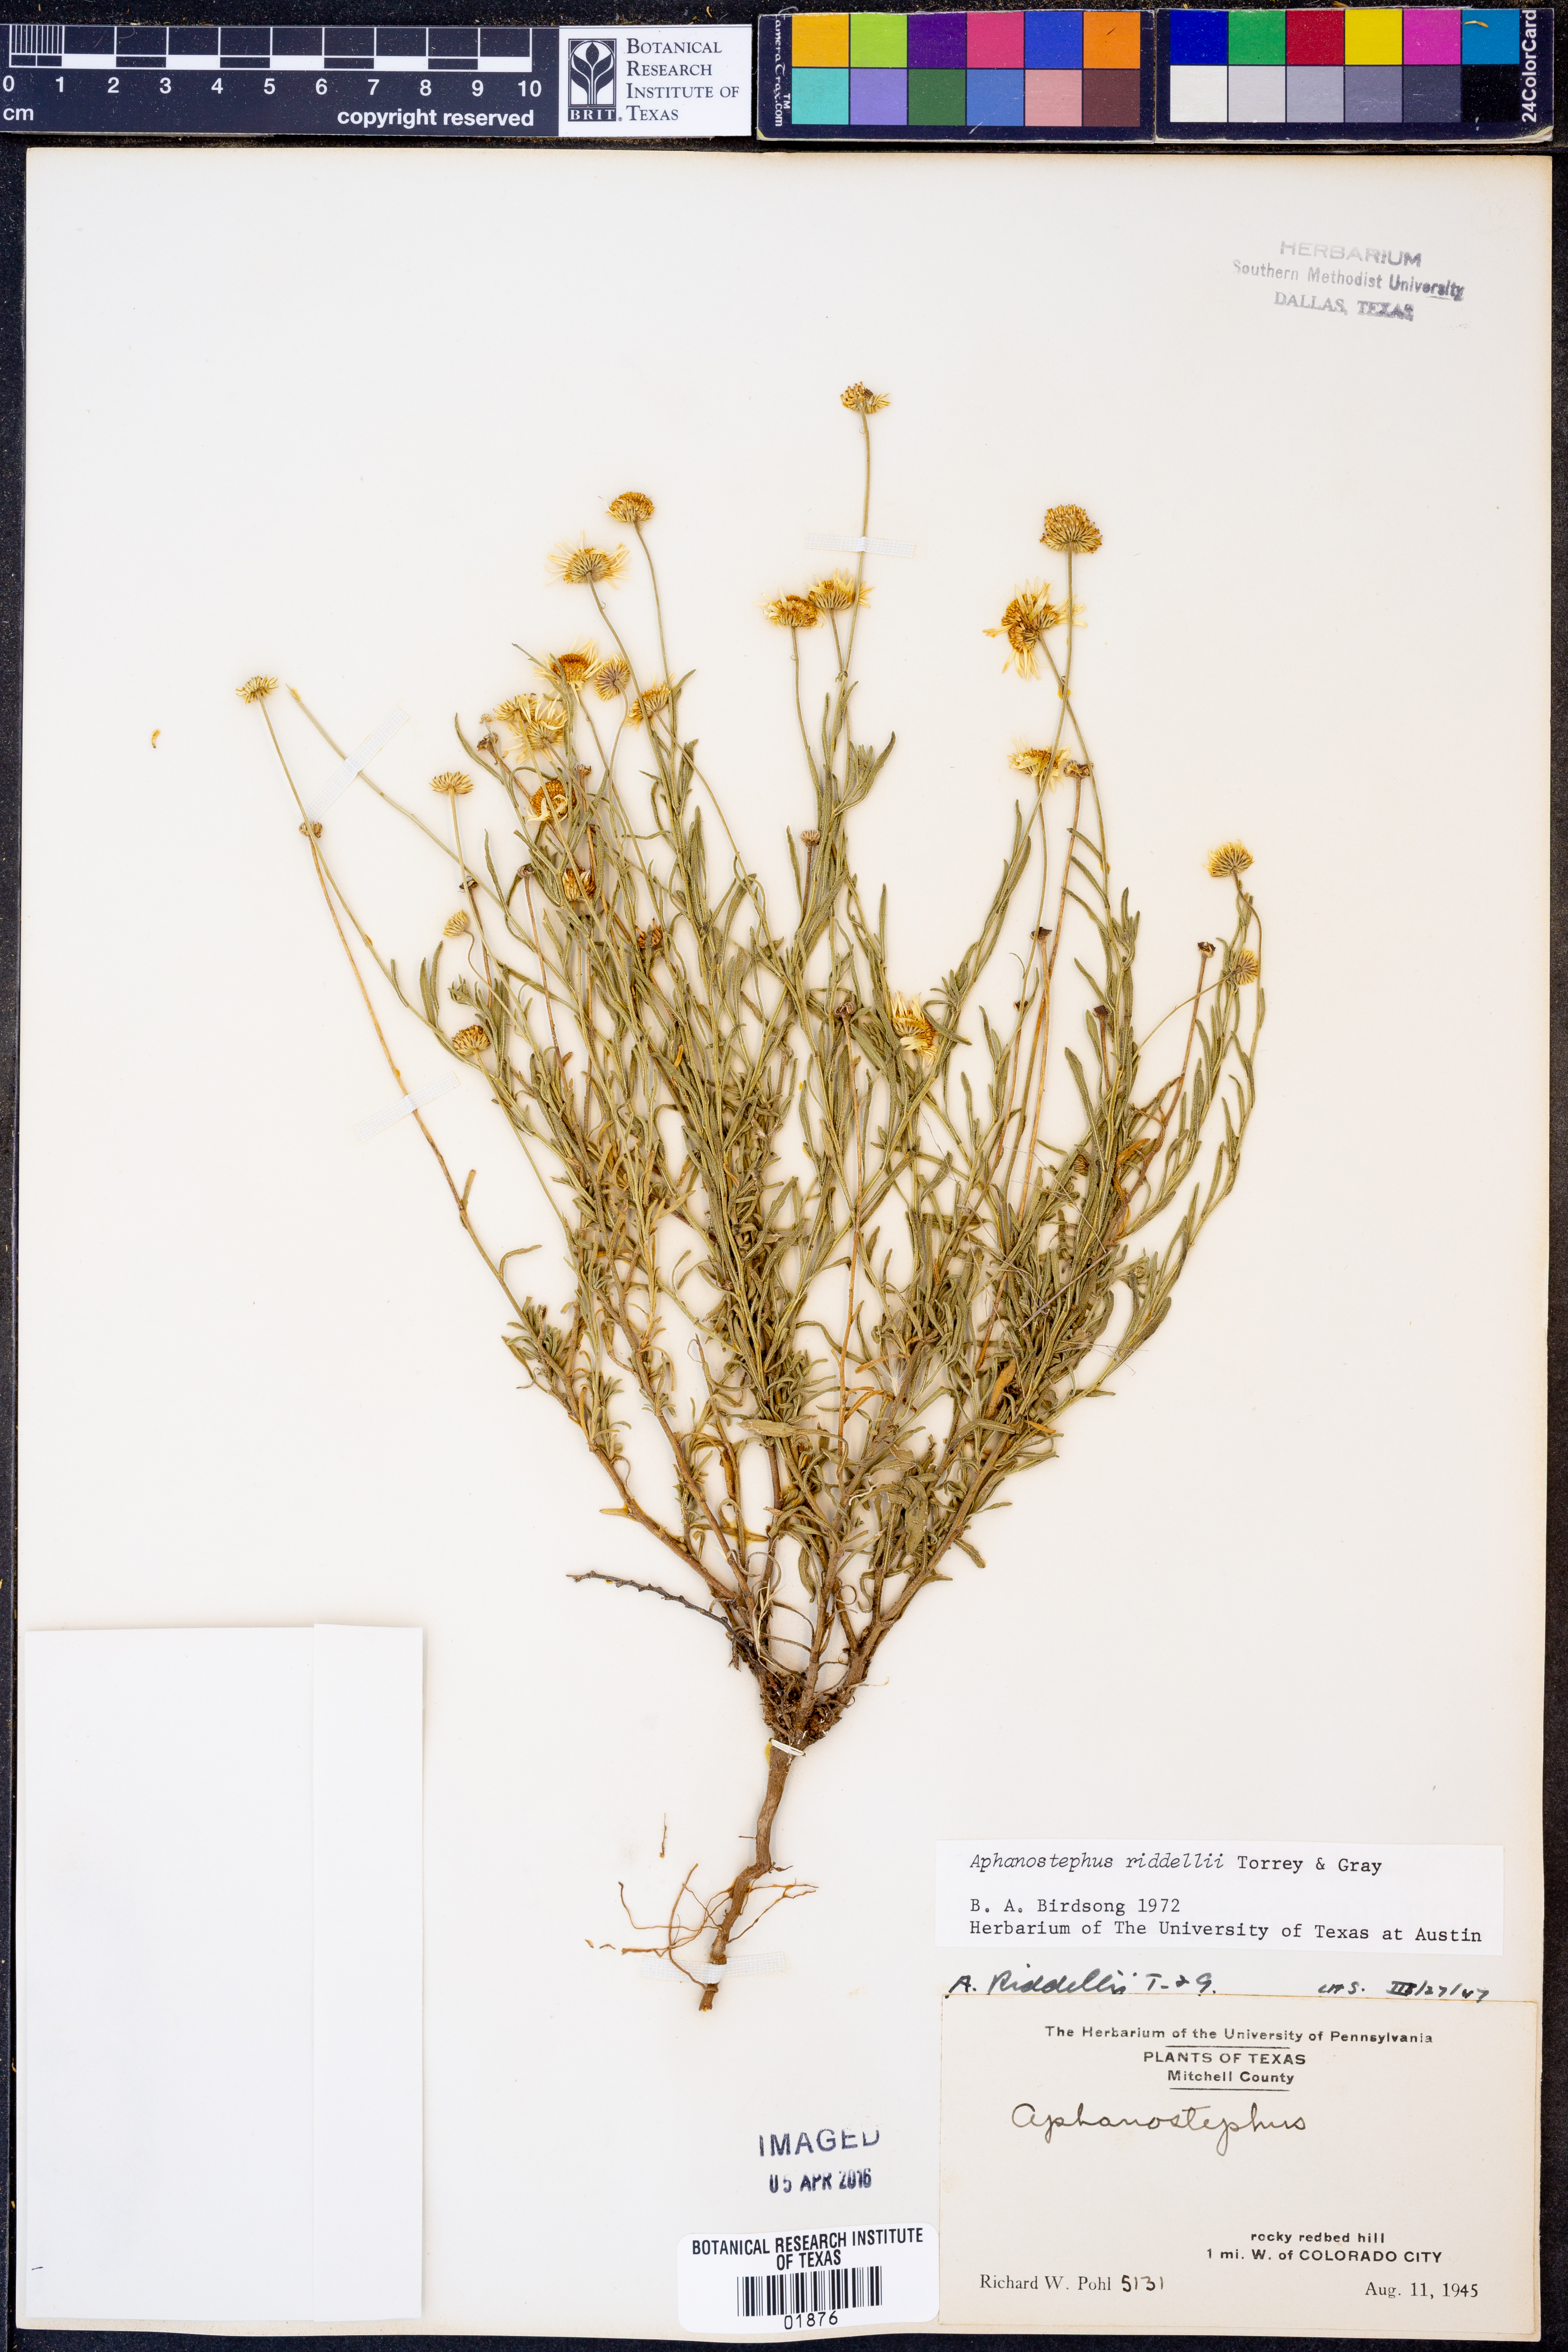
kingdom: Plantae
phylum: Tracheophyta
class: Magnoliopsida
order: Asterales
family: Asteraceae
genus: Aphanostephus
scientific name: Aphanostephus riddellii
